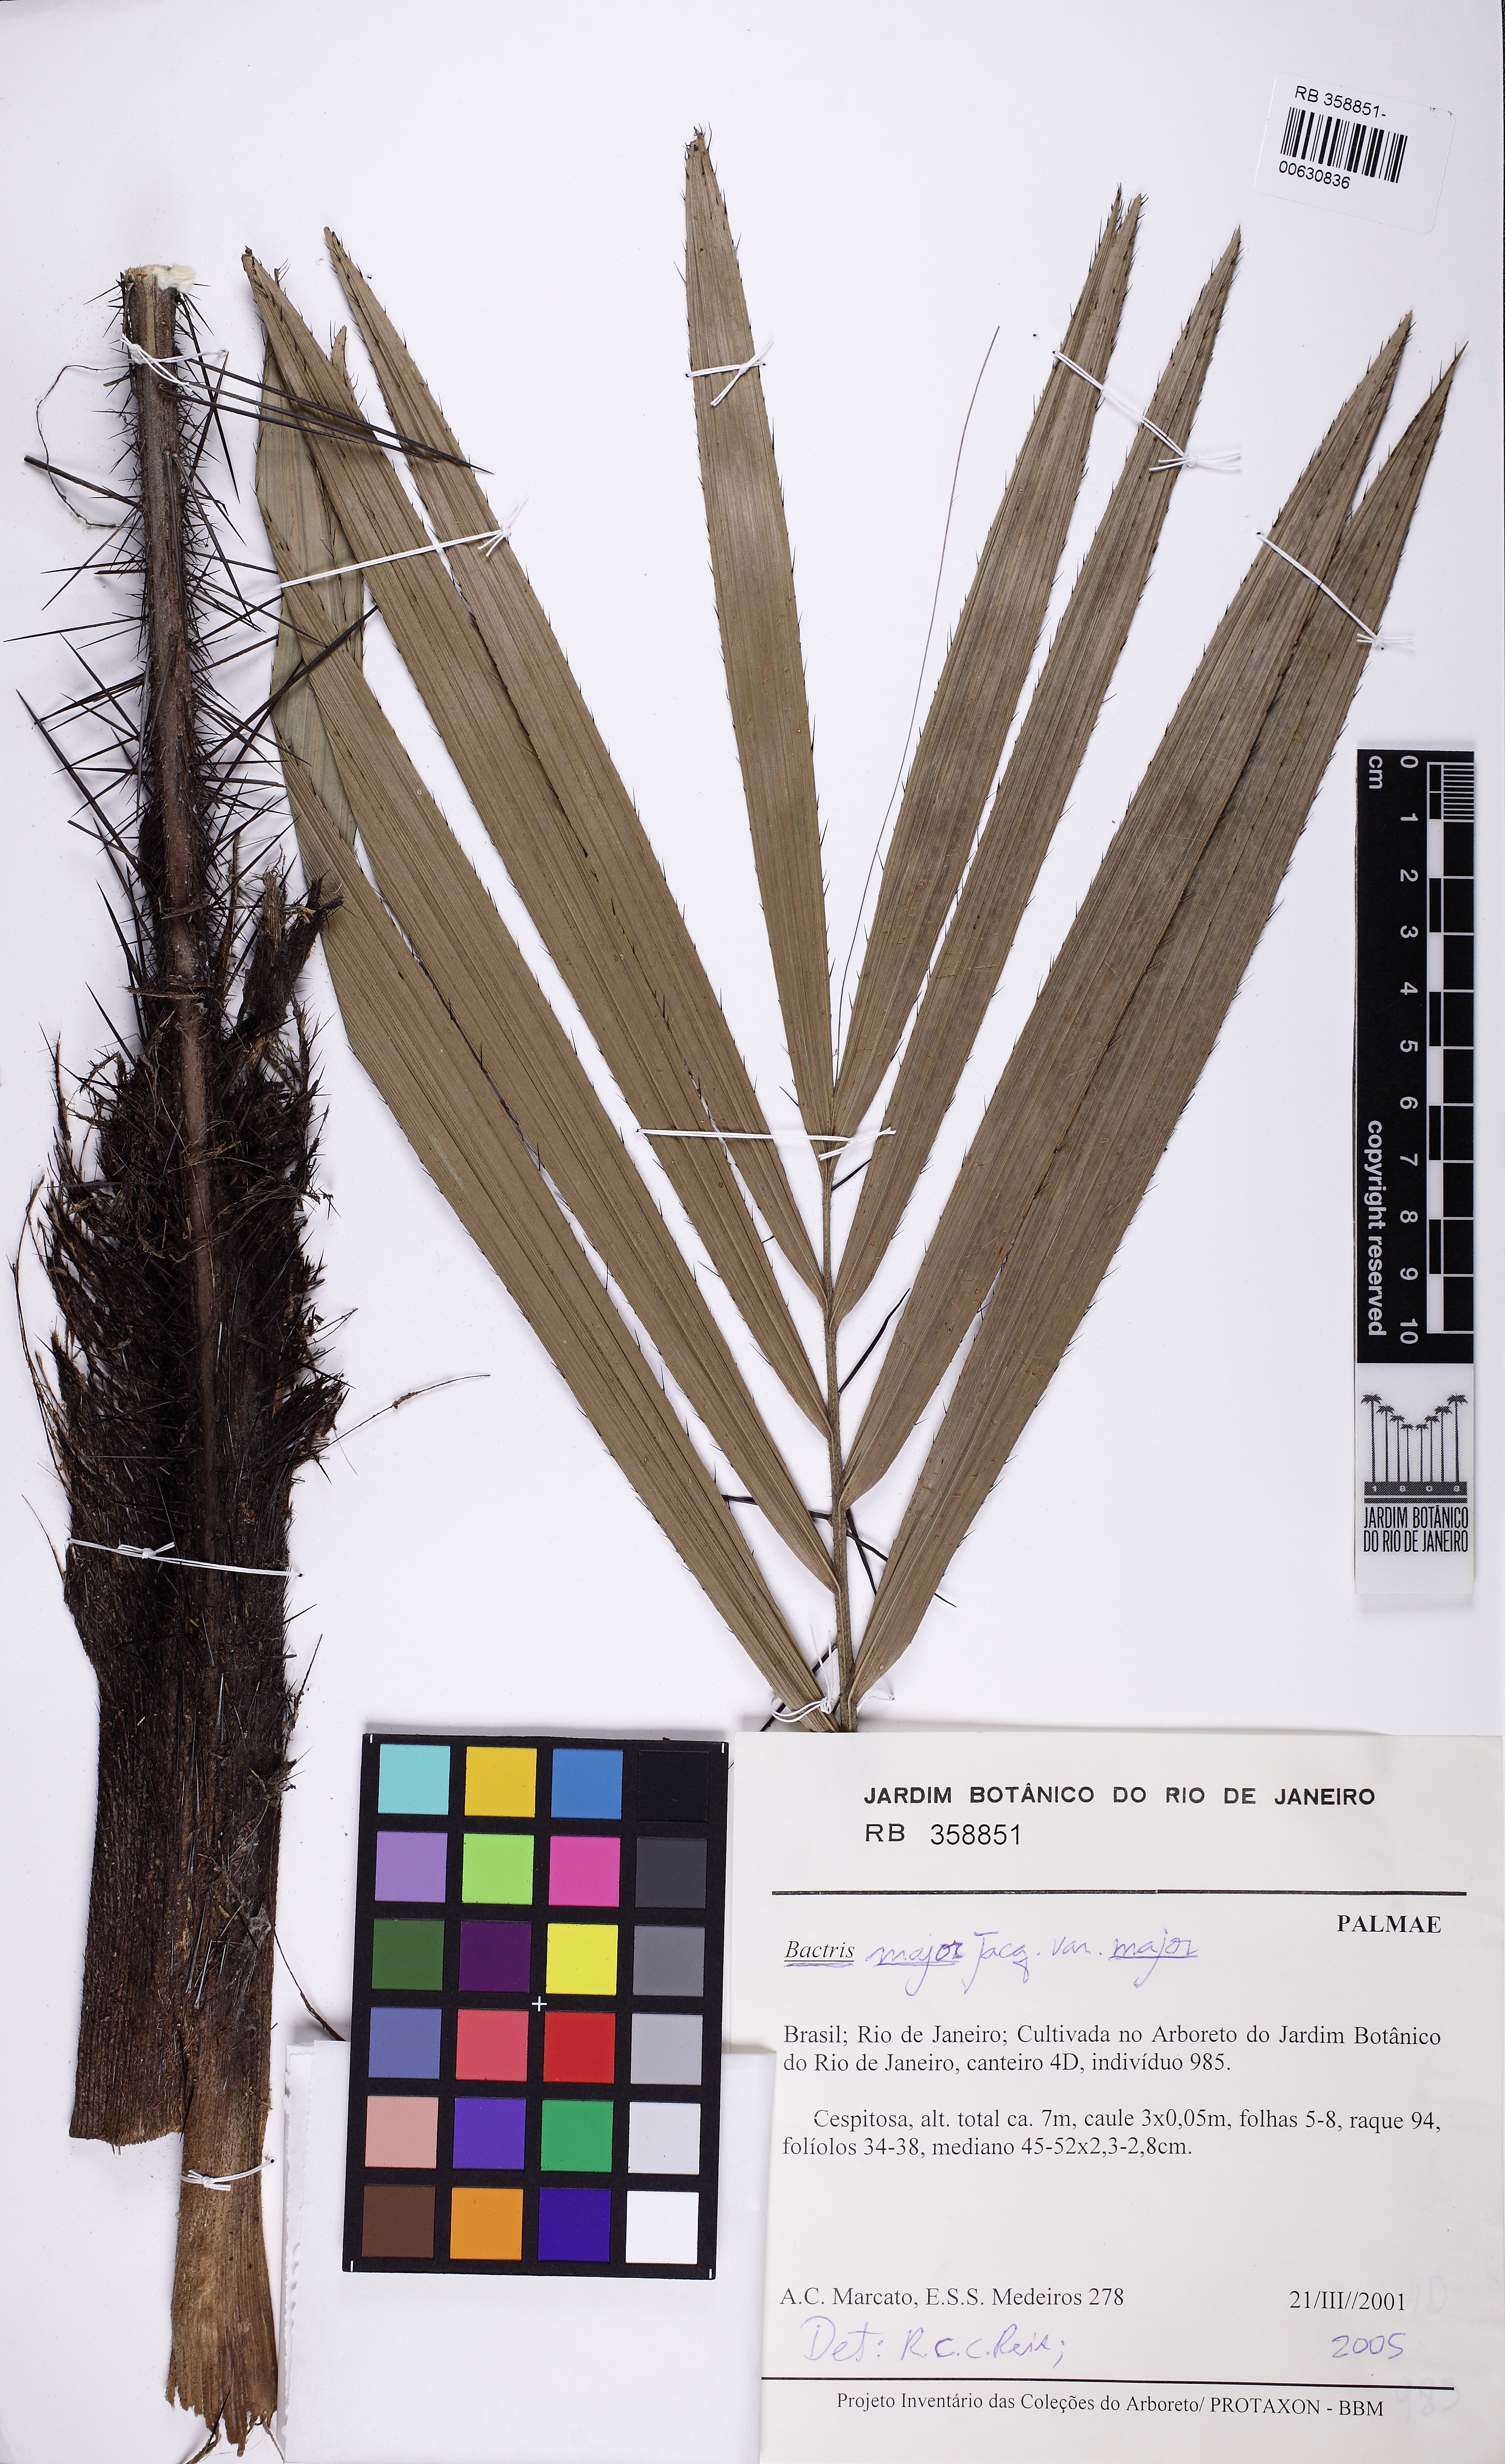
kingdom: Plantae
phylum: Tracheophyta
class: Liliopsida
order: Arecales
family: Arecaceae
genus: Bactris
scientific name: Bactris major
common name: Beach palm
